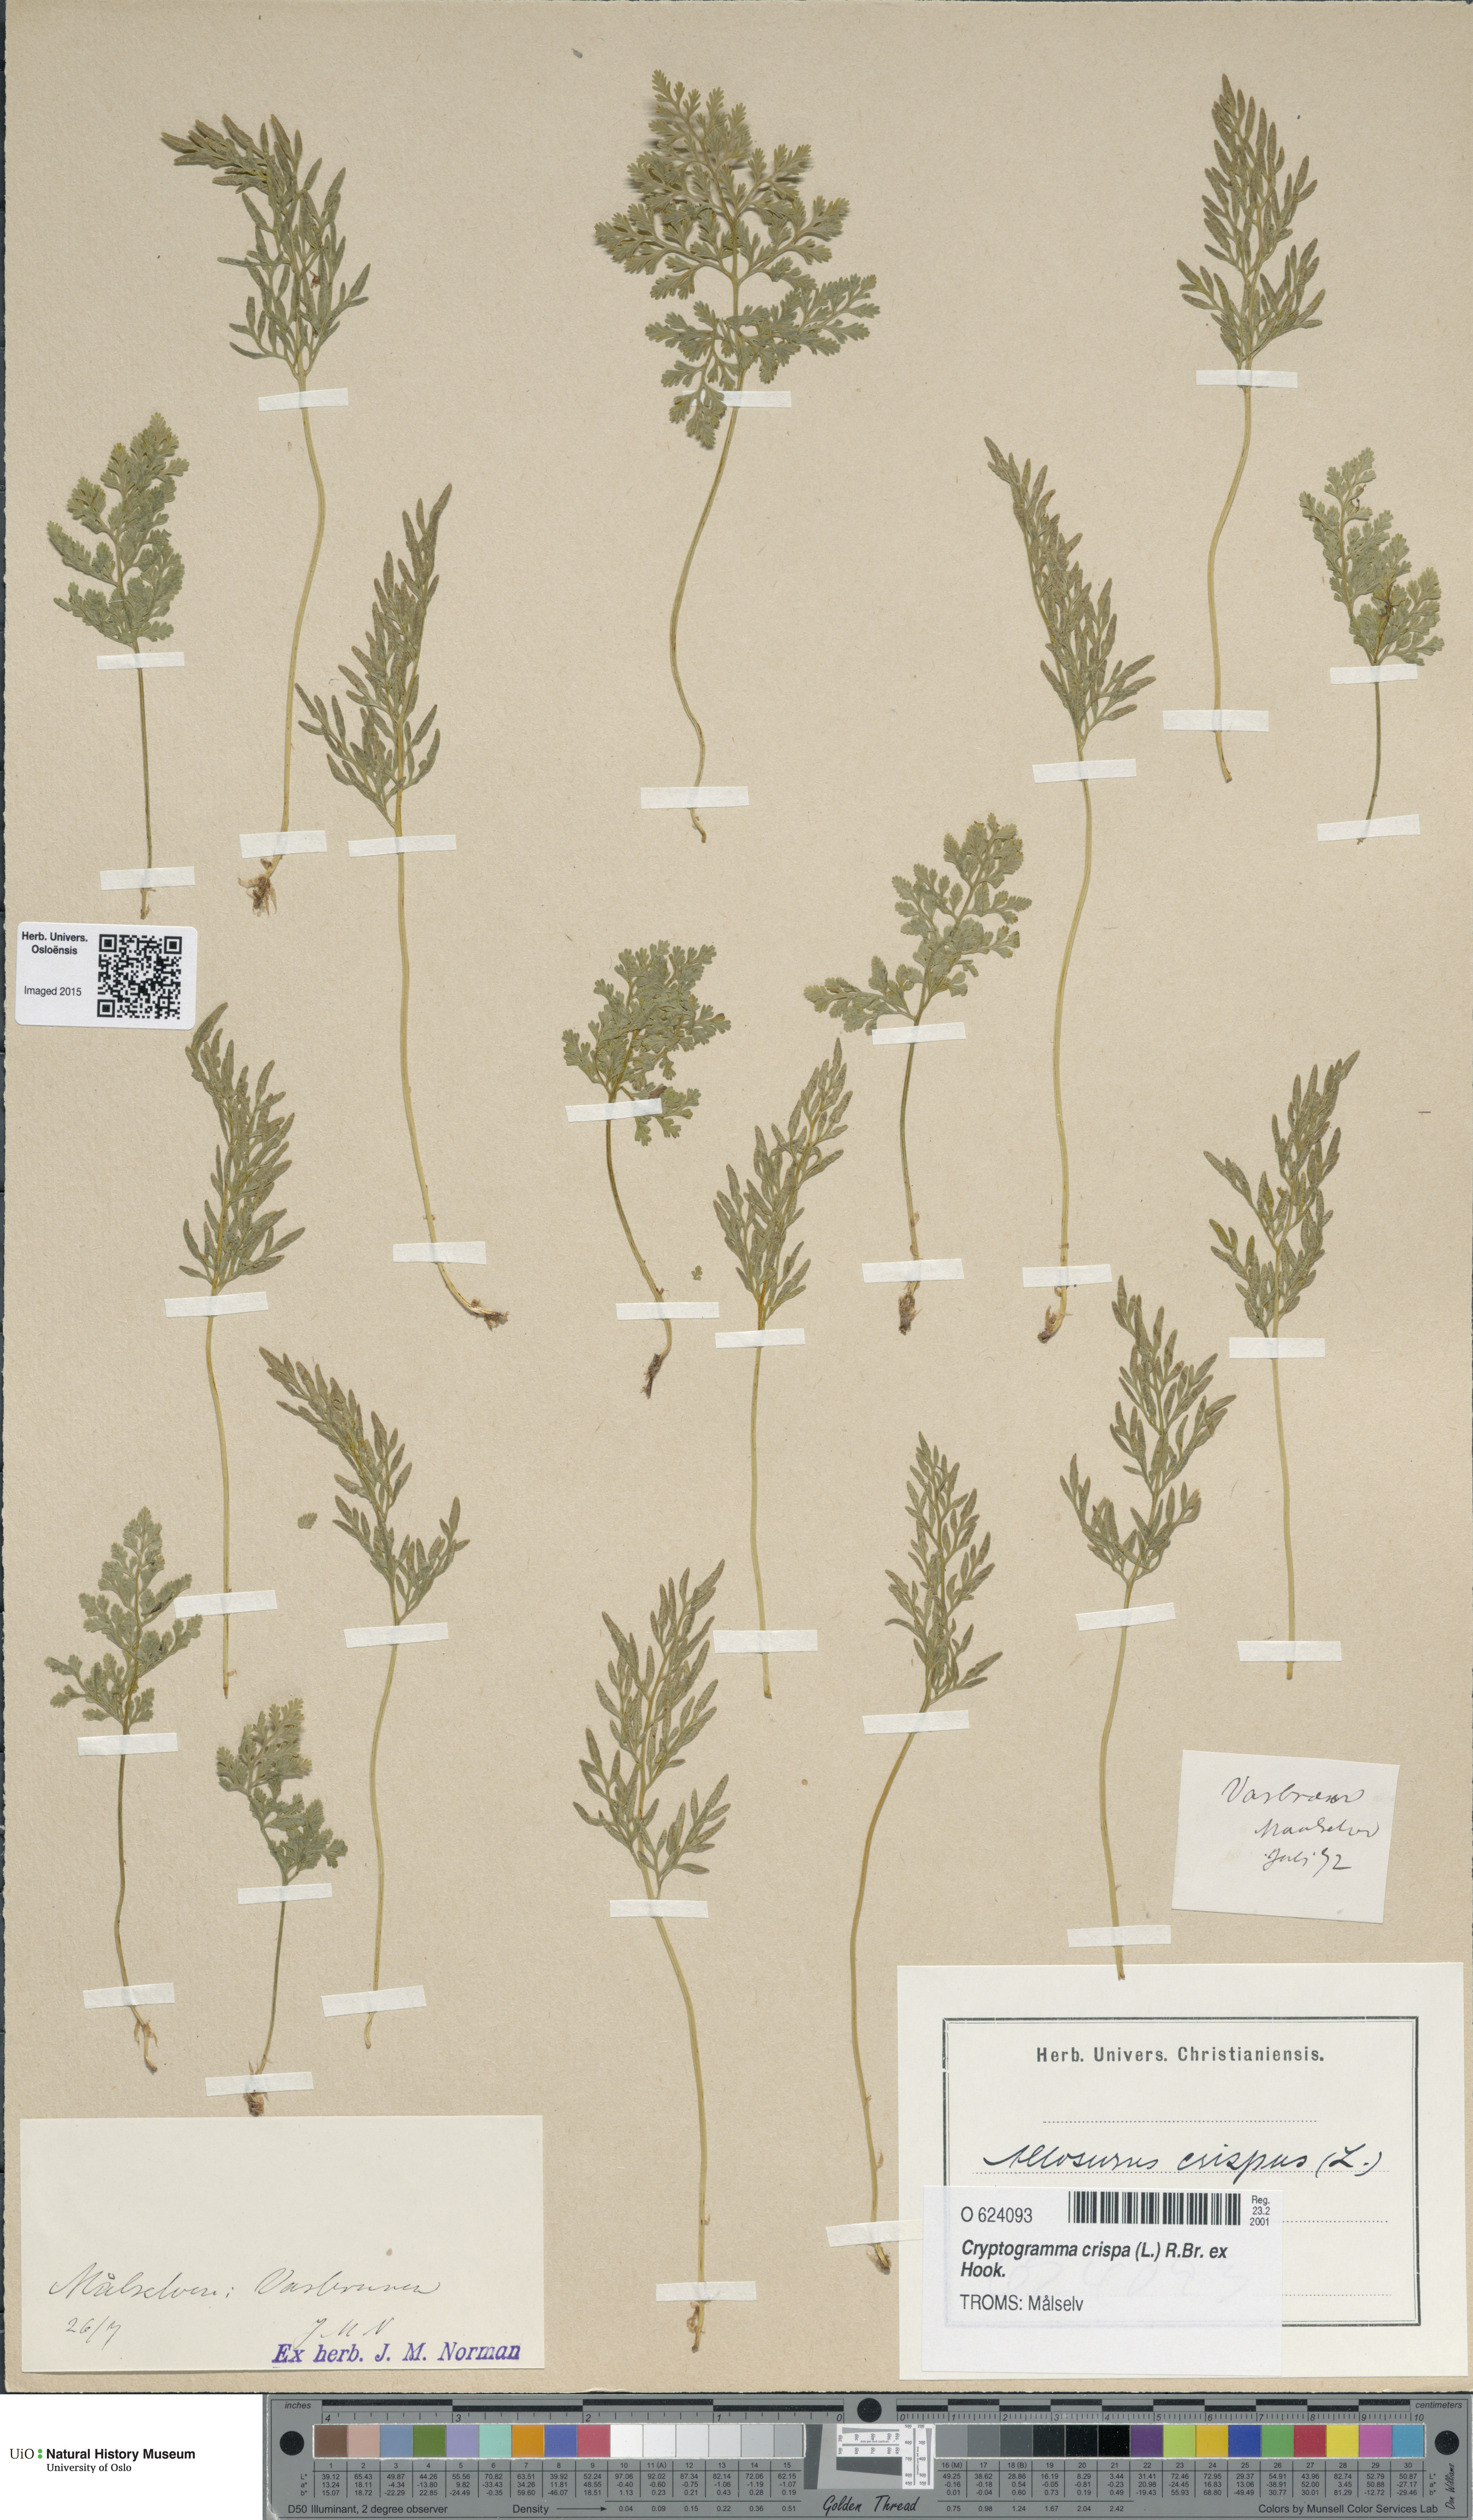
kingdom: Plantae
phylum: Tracheophyta
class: Polypodiopsida
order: Polypodiales
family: Pteridaceae
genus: Cryptogramma
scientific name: Cryptogramma crispa
